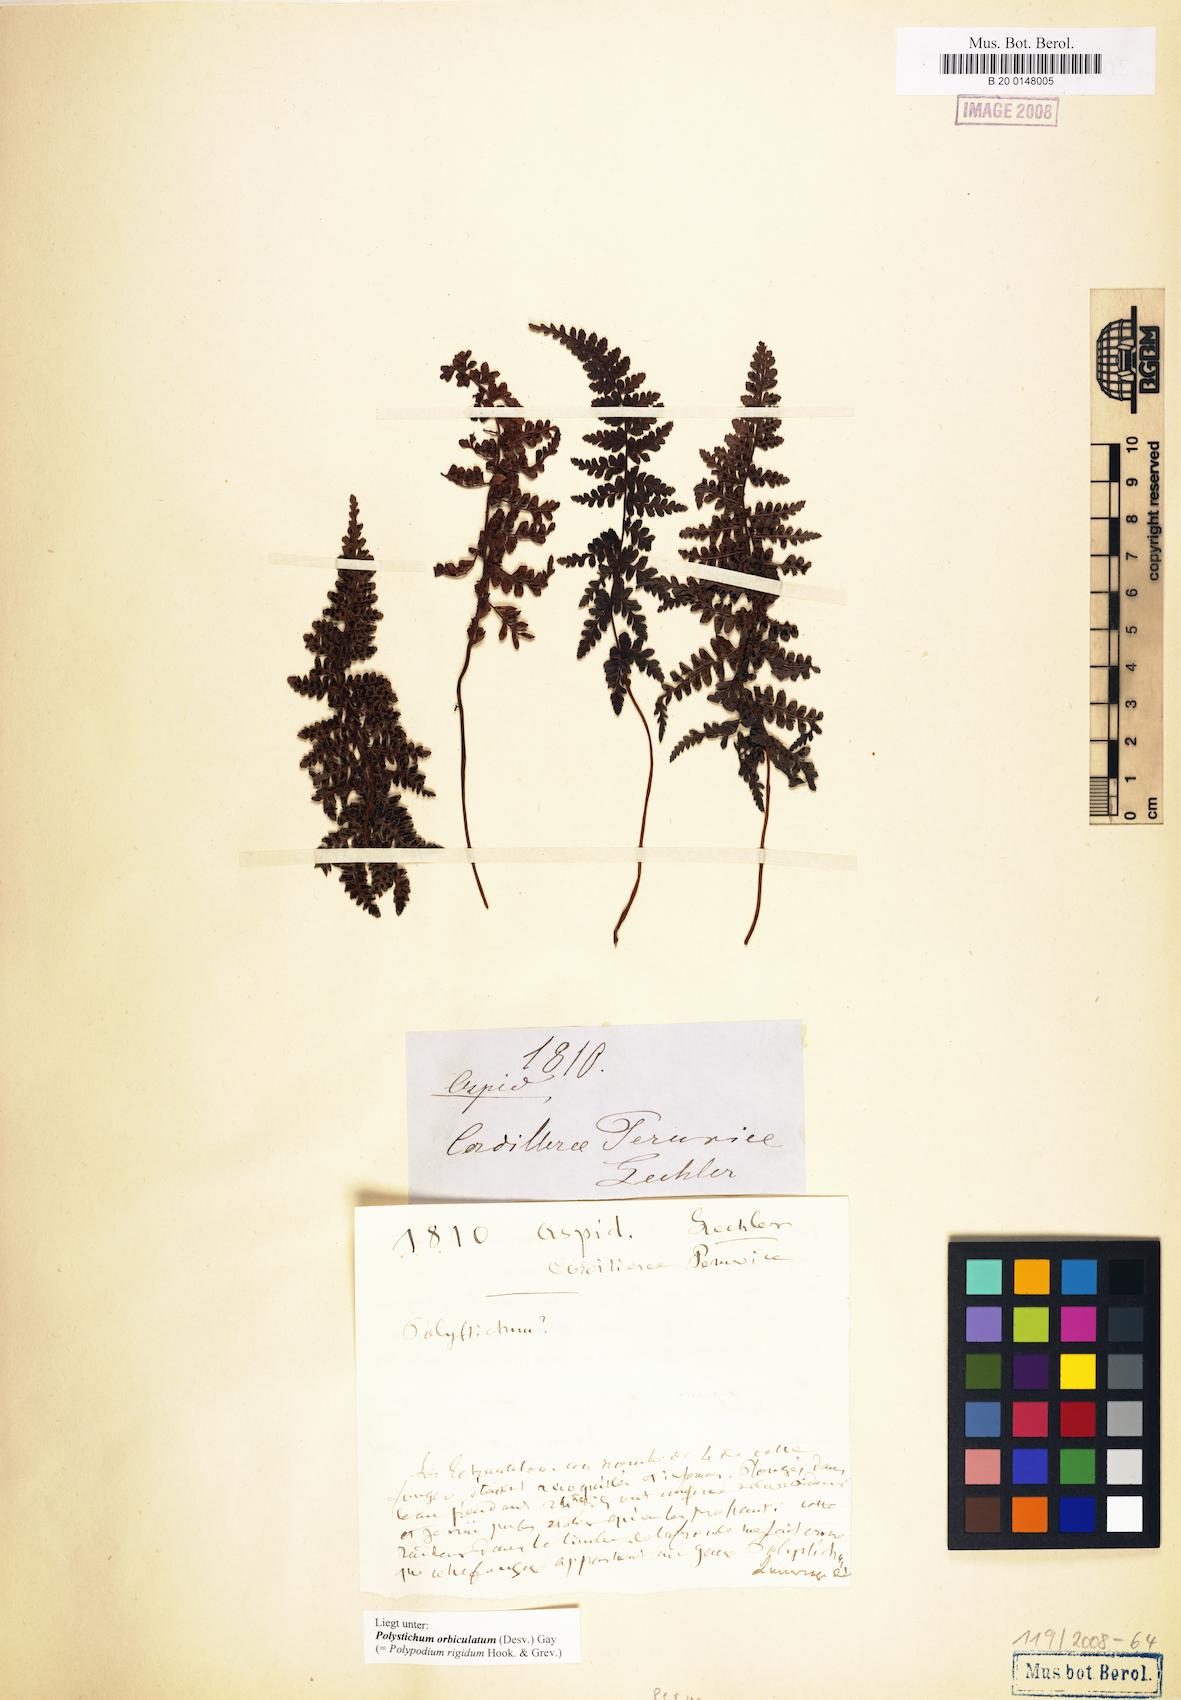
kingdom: Plantae
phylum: Tracheophyta
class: Polypodiopsida
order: Polypodiales
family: Dryopteridaceae
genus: Polystichum
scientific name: Polystichum orbiculatum
